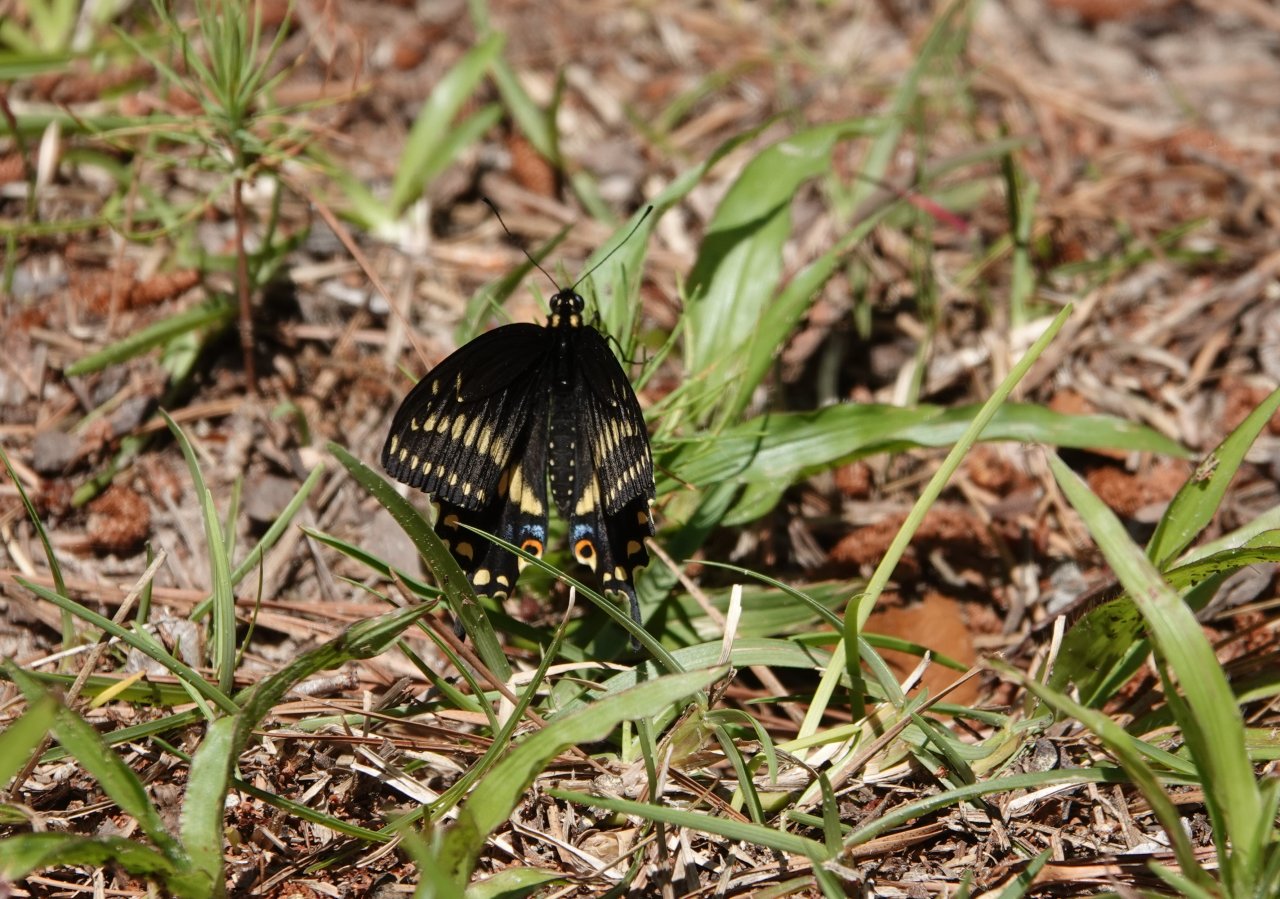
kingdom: Animalia
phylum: Arthropoda
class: Insecta
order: Lepidoptera
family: Papilionidae
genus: Papilio
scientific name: Papilio polyxenes
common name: Black Swallowtail
